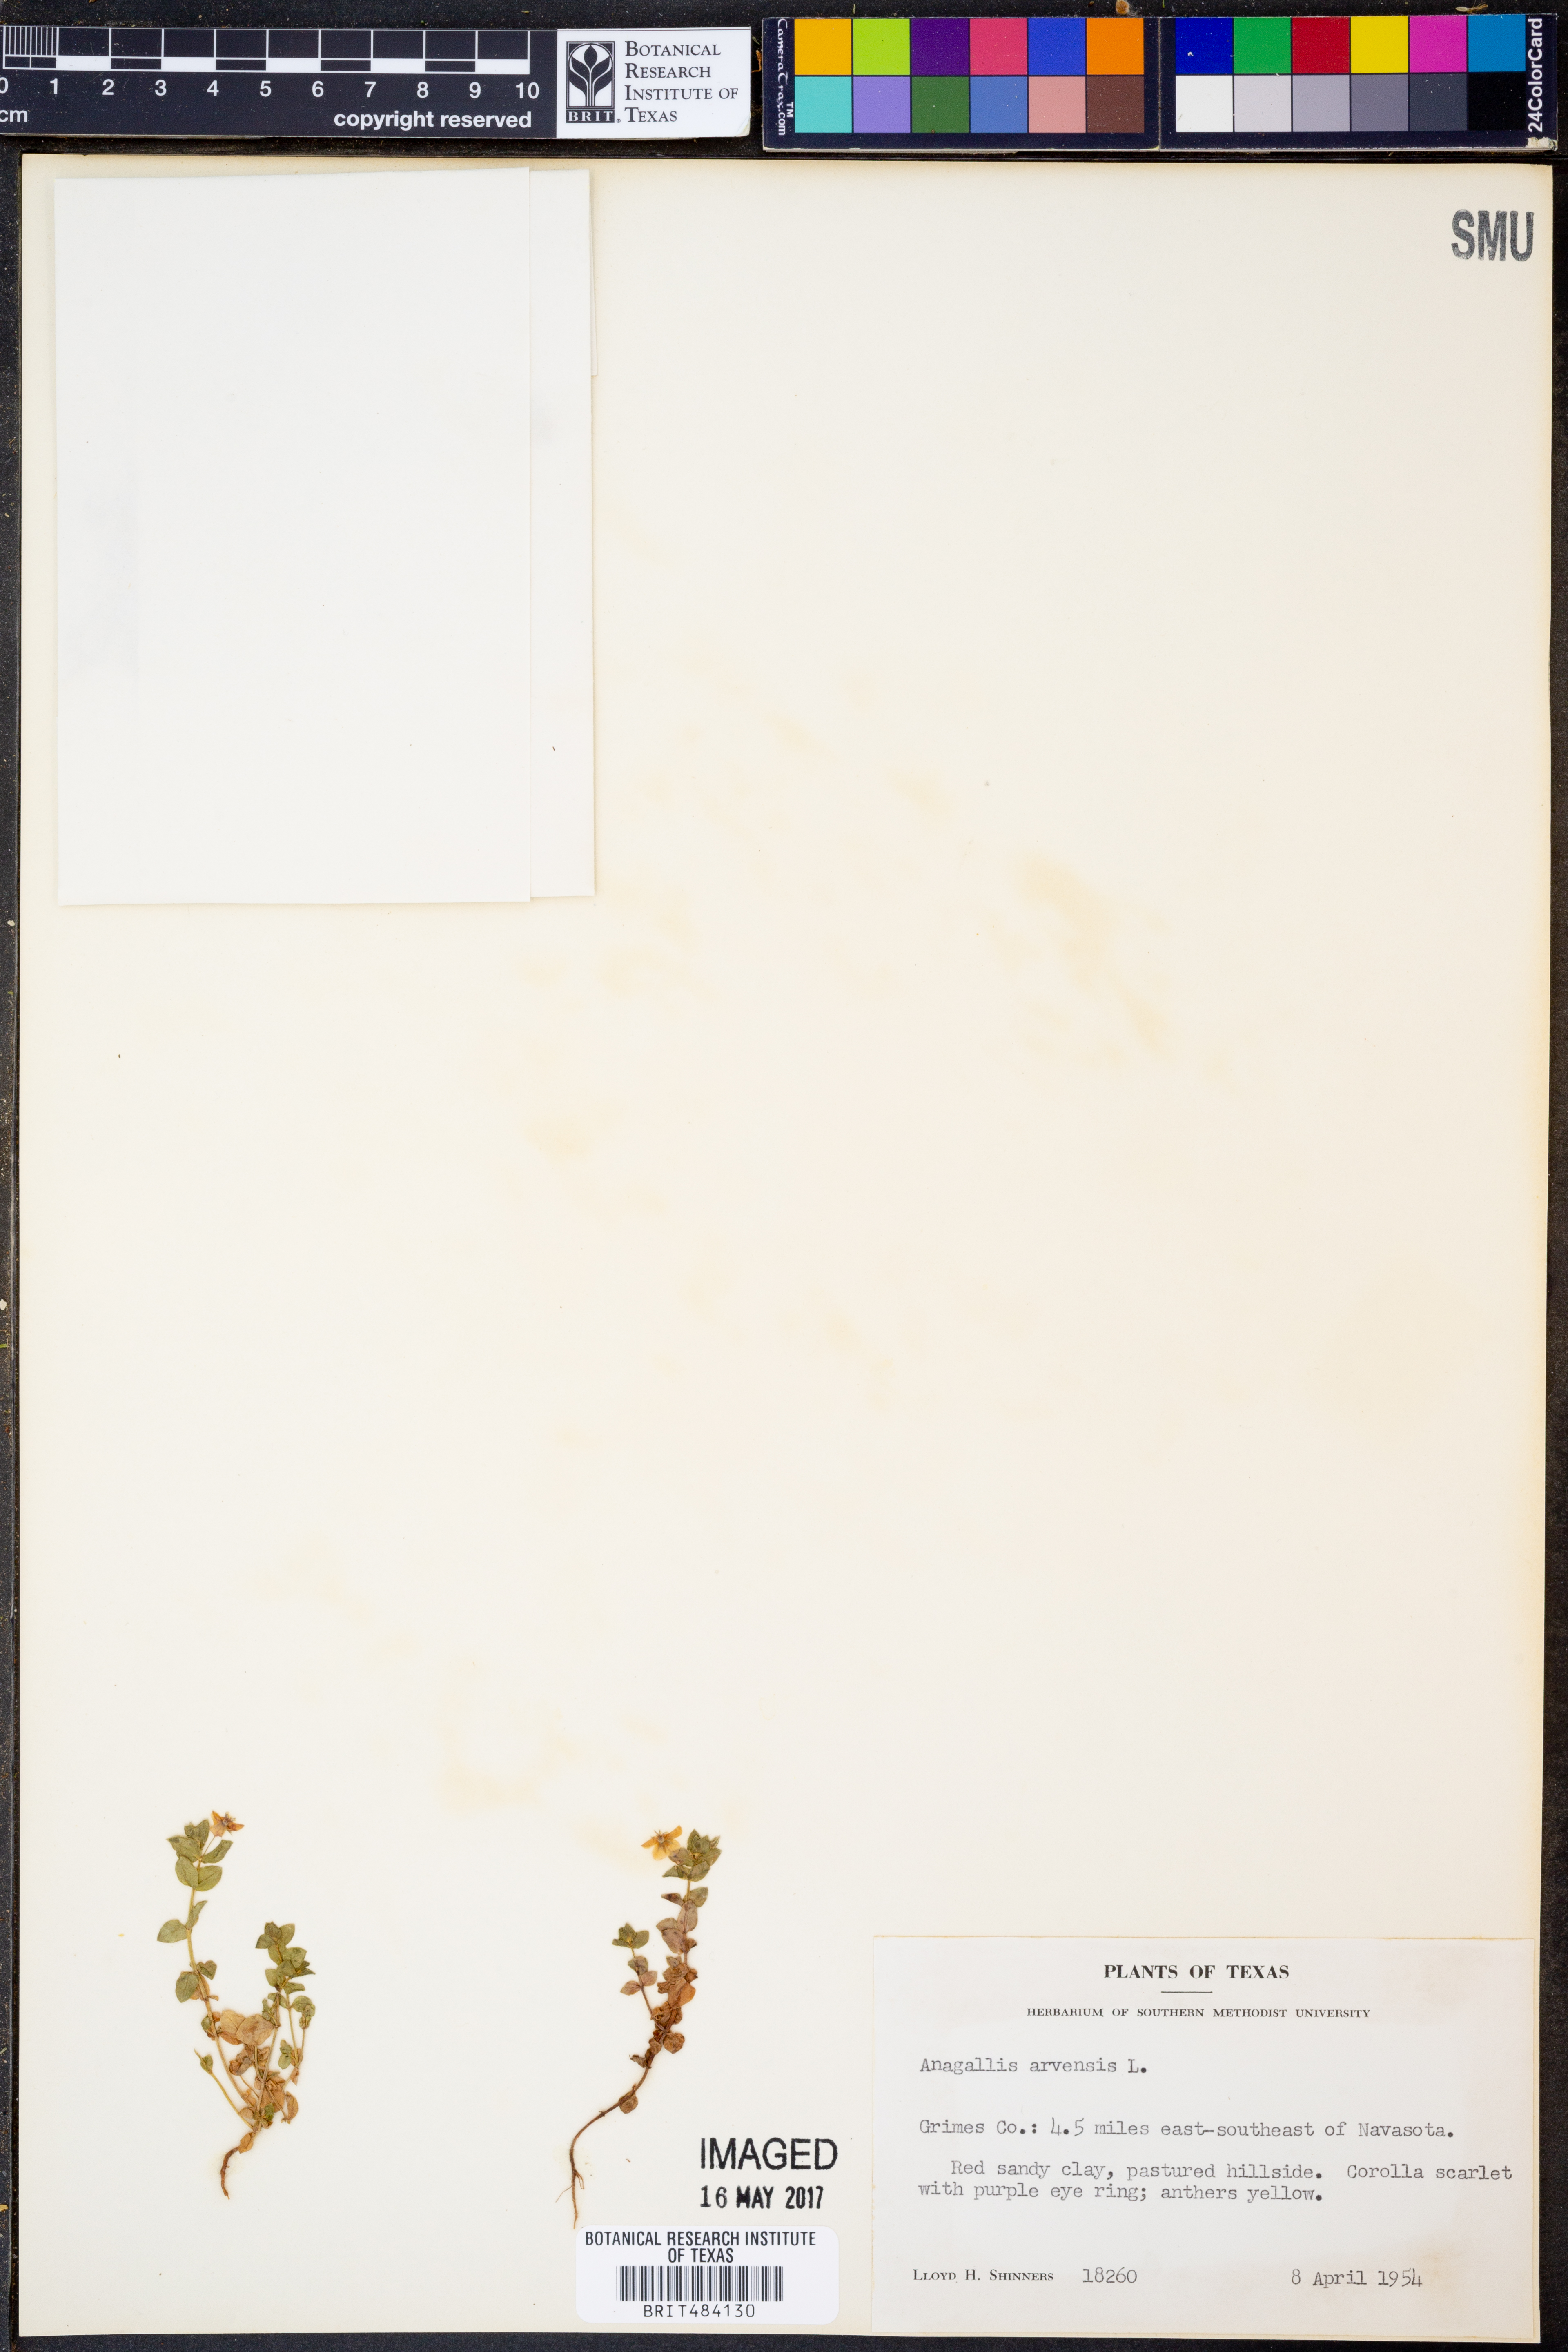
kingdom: Plantae
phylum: Tracheophyta
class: Magnoliopsida
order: Ericales
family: Primulaceae
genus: Lysimachia
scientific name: Lysimachia arvensis
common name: Scarlet pimpernel
